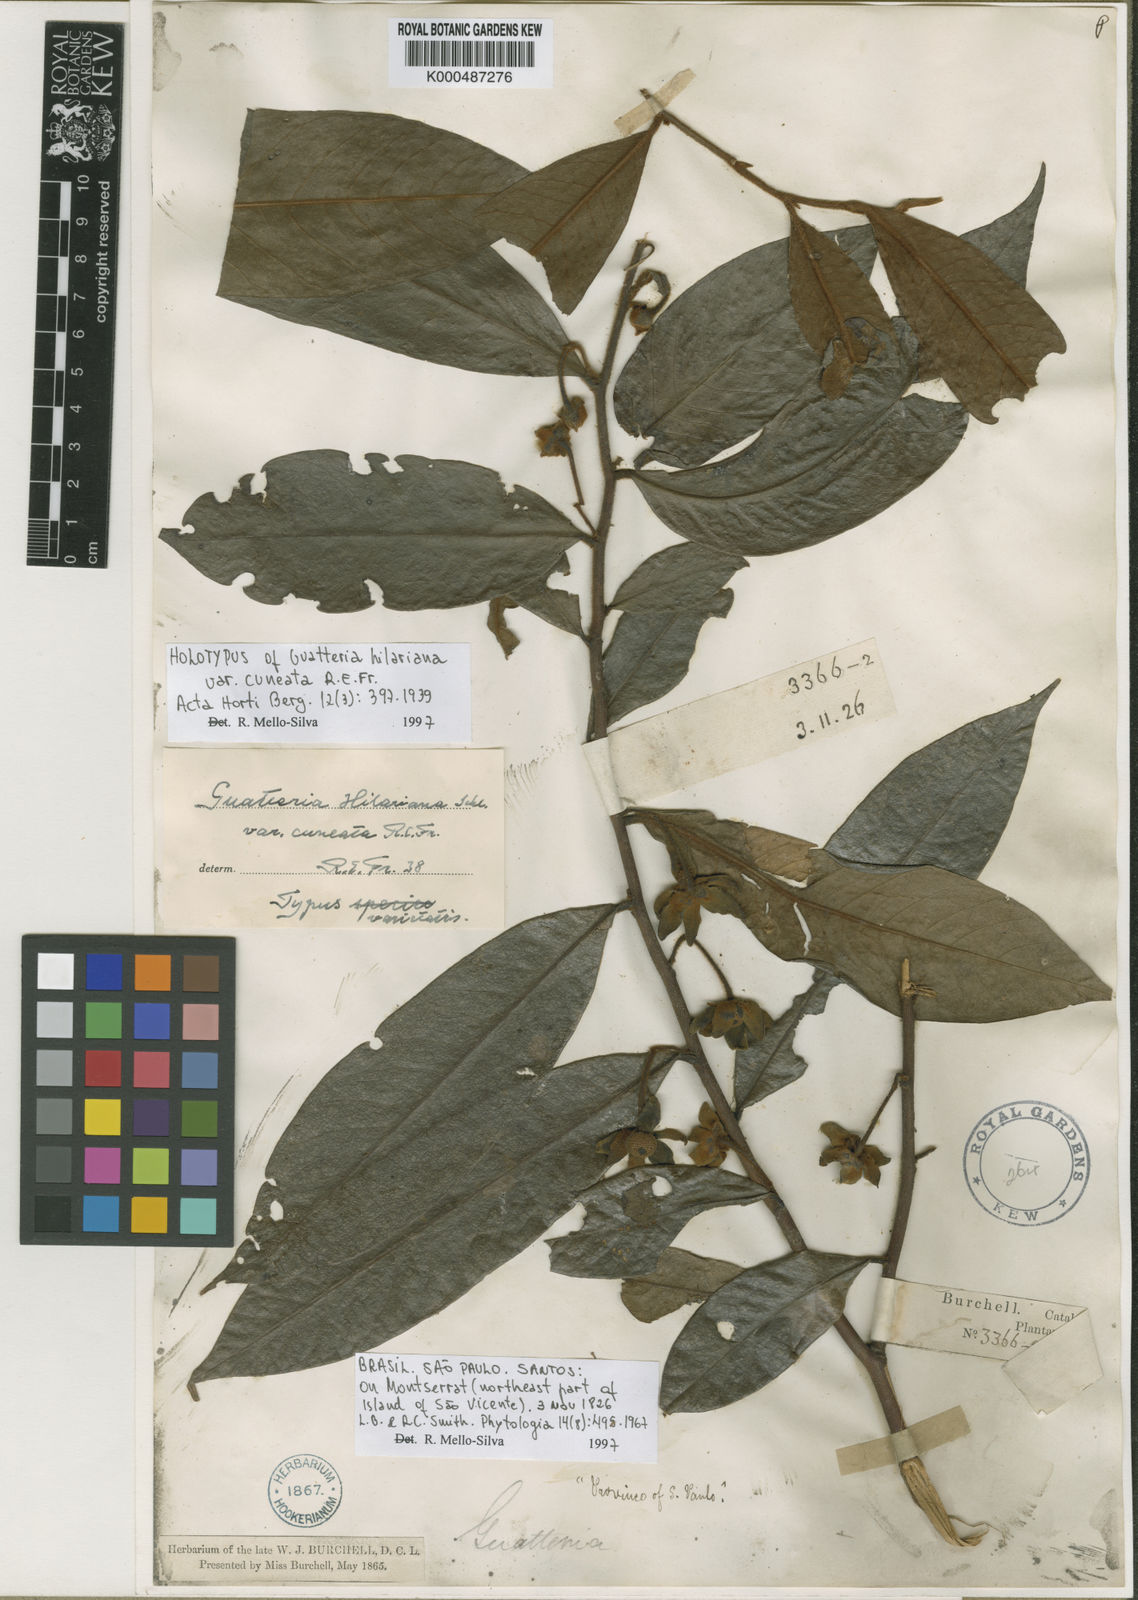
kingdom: Plantae
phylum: Tracheophyta
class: Magnoliopsida
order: Magnoliales
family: Annonaceae
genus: Guatteria
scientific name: Guatteria australis
